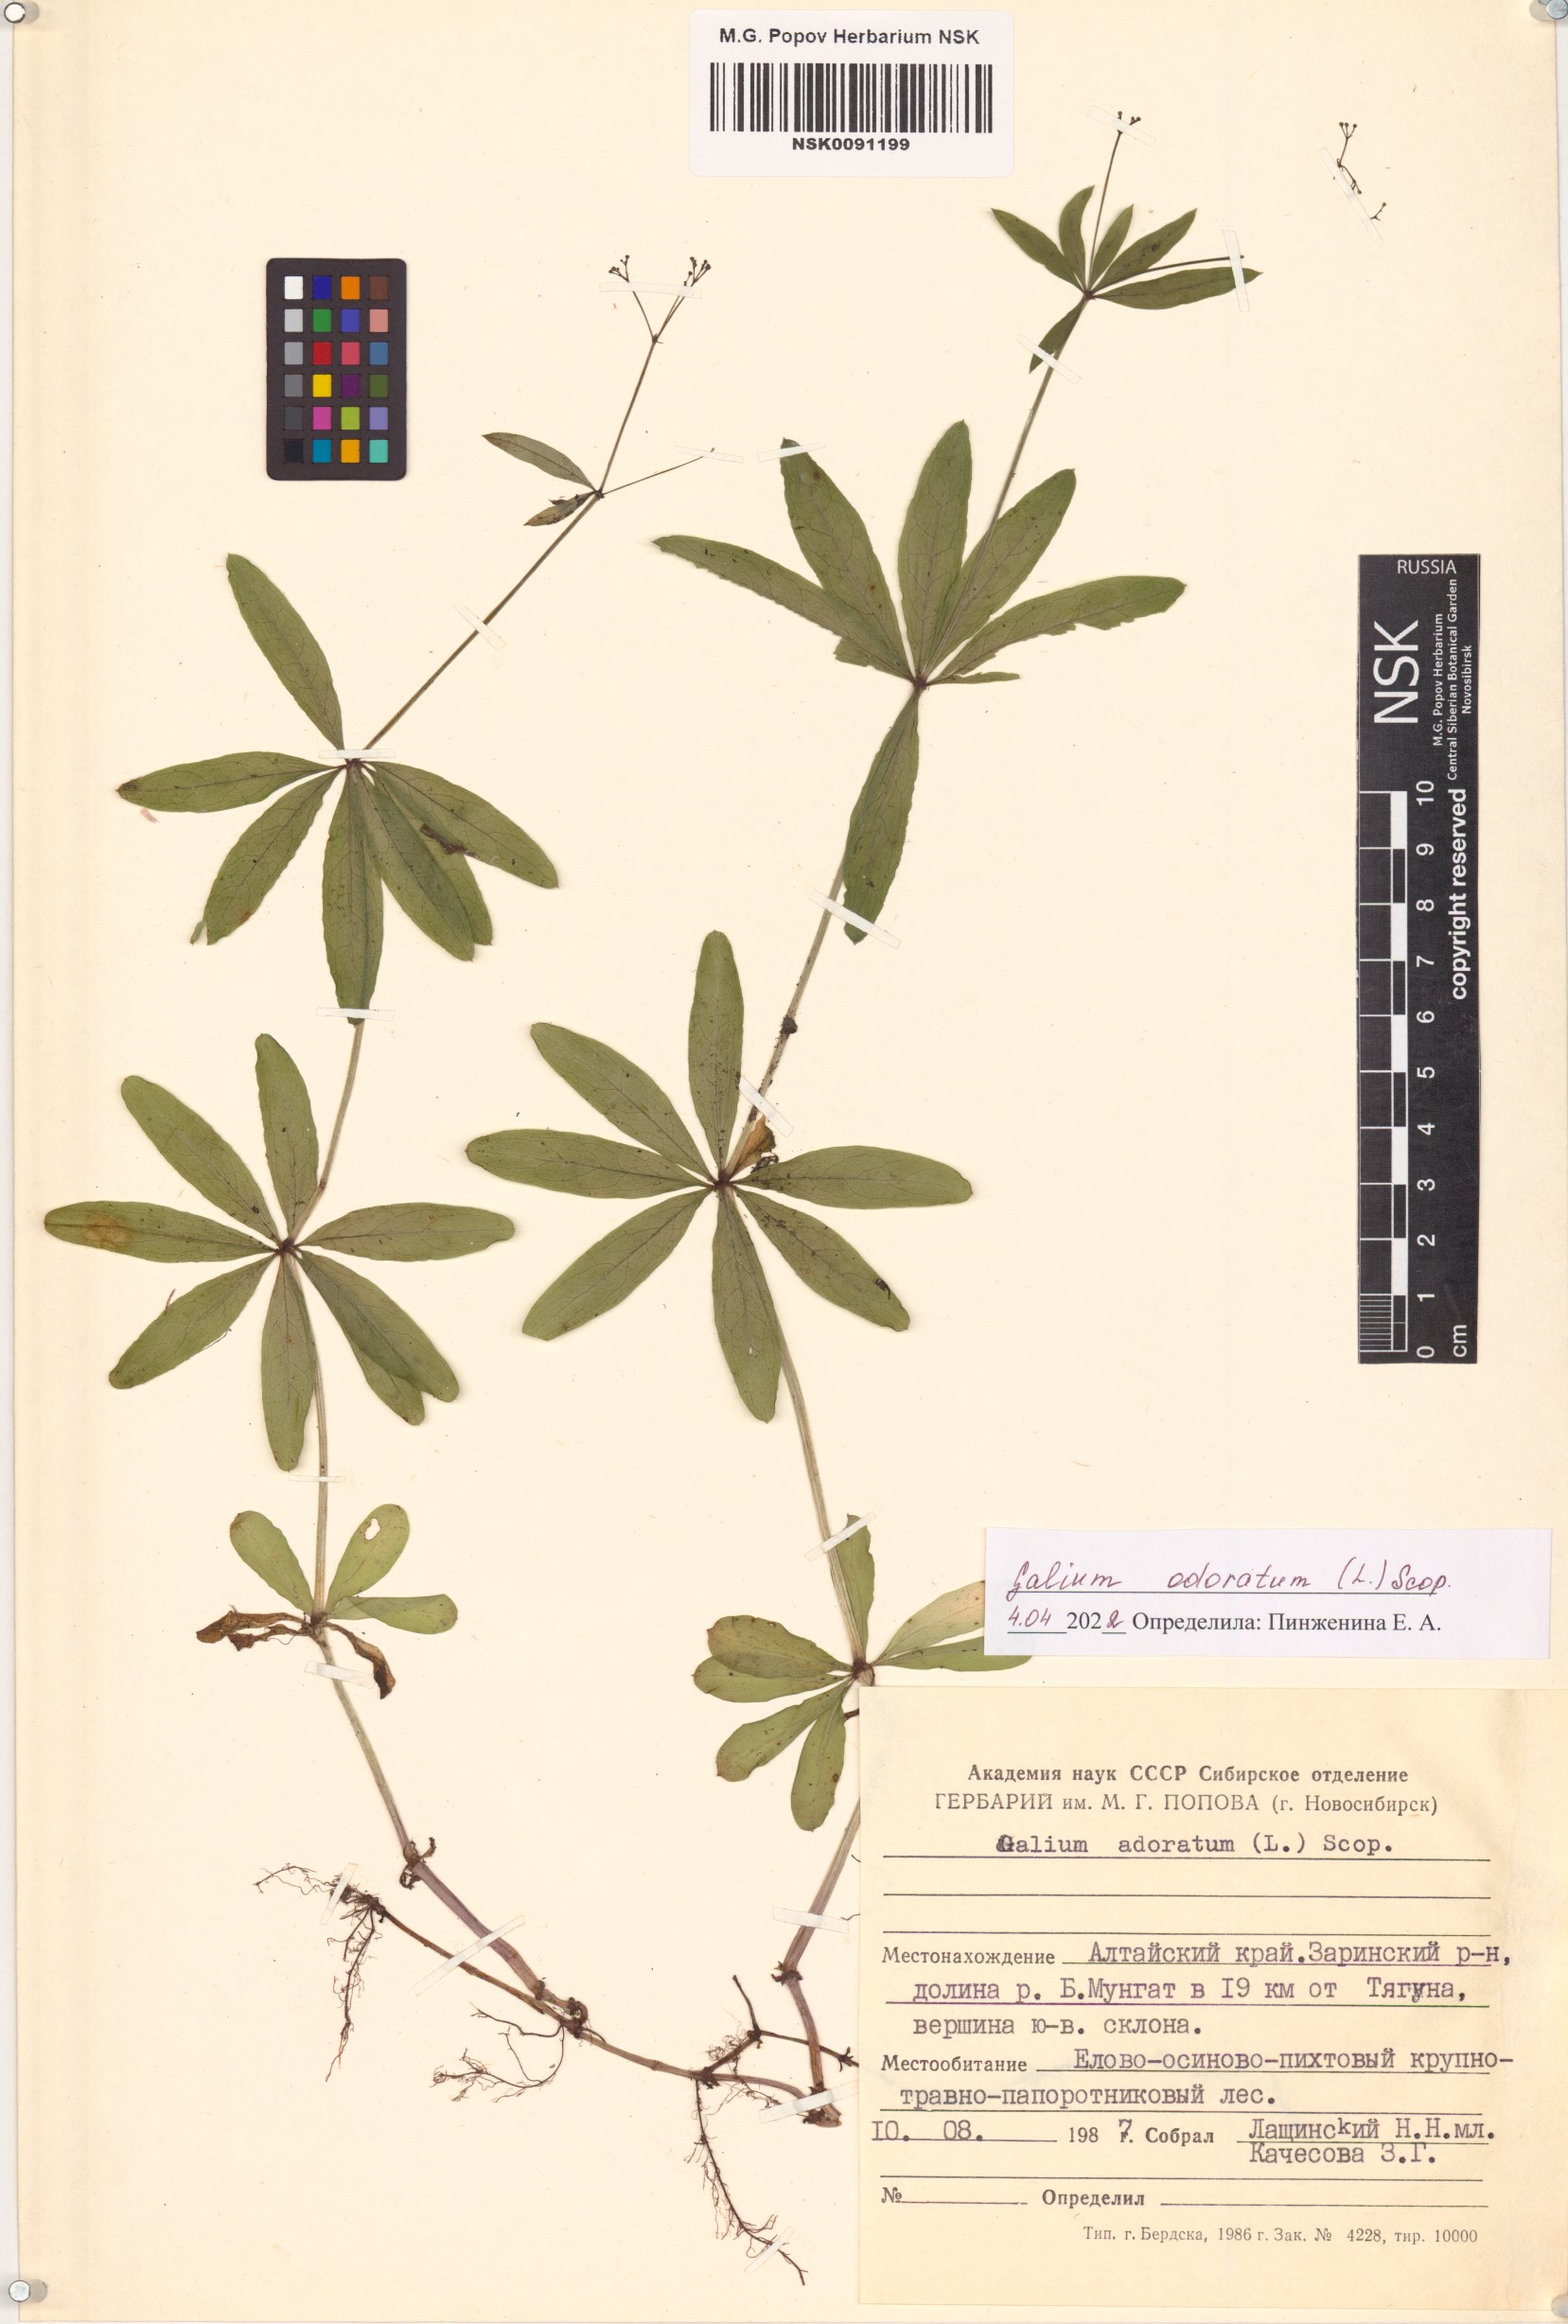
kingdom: Plantae
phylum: Tracheophyta
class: Magnoliopsida
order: Gentianales
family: Rubiaceae
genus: Galium
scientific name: Galium odoratum
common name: Sweet woodruff
